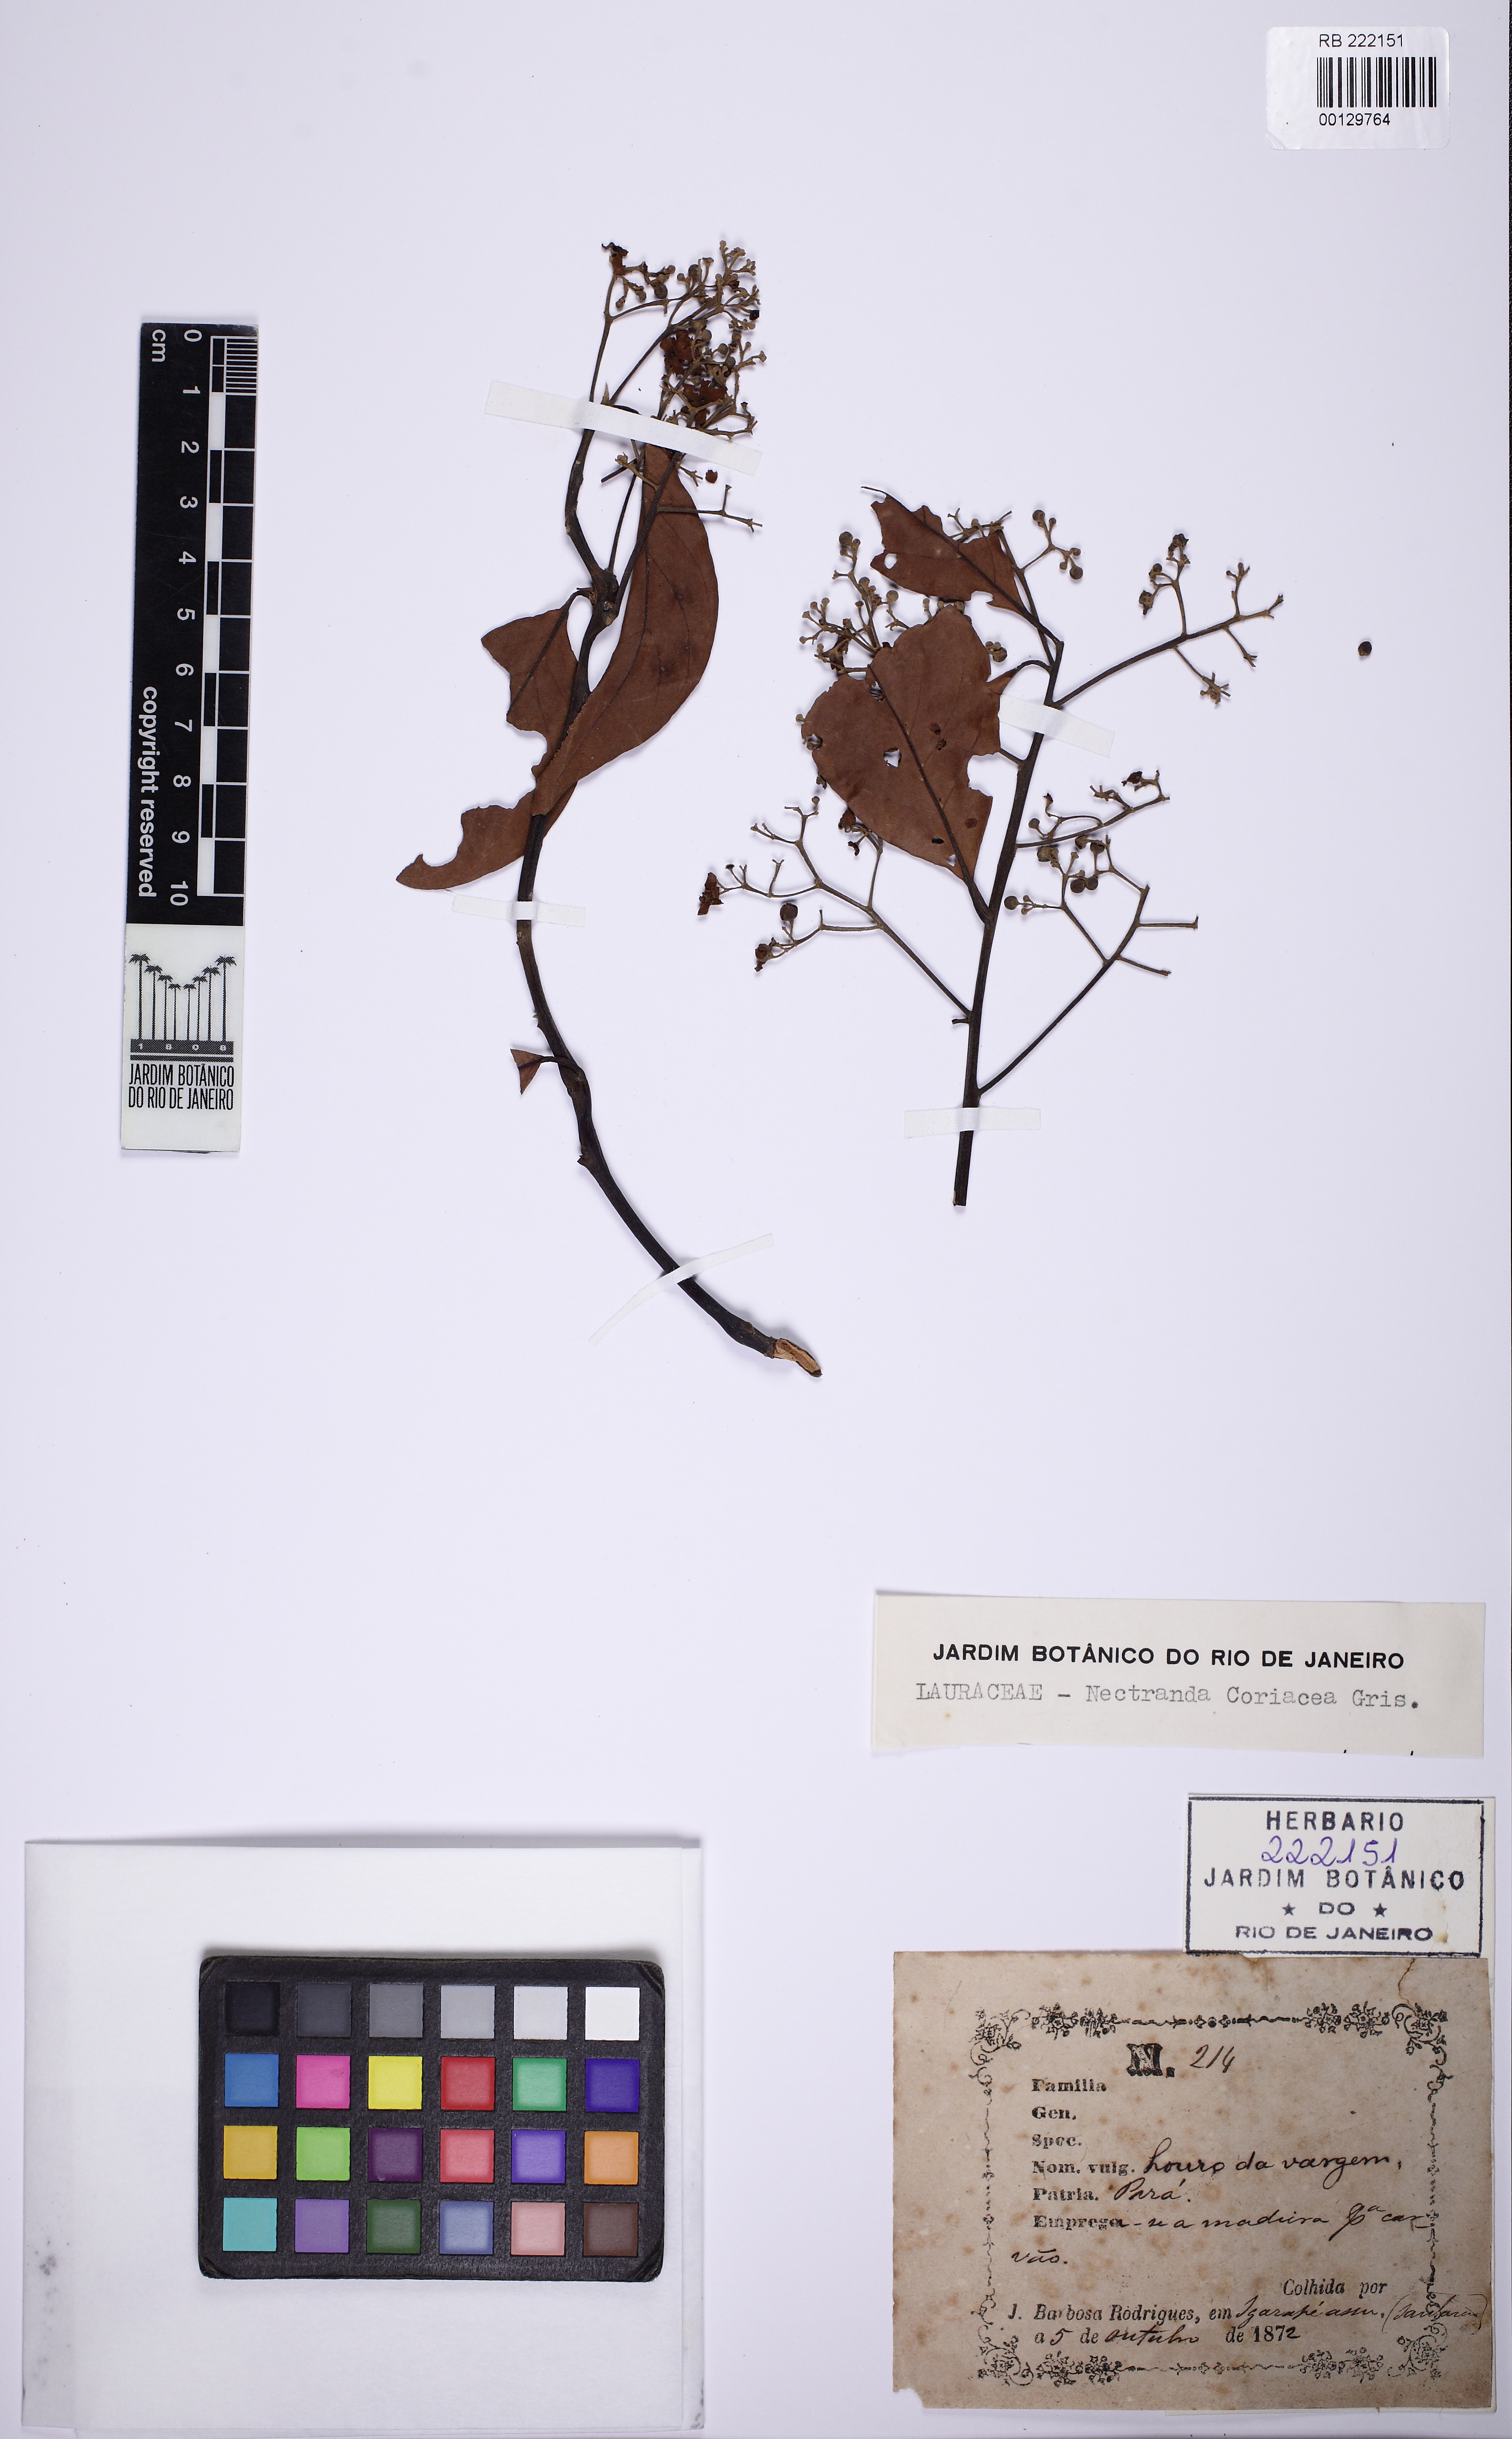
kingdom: Plantae
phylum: Tracheophyta
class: Magnoliopsida
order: Laurales
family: Lauraceae
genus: Damburneya
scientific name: Damburneya coriacea
